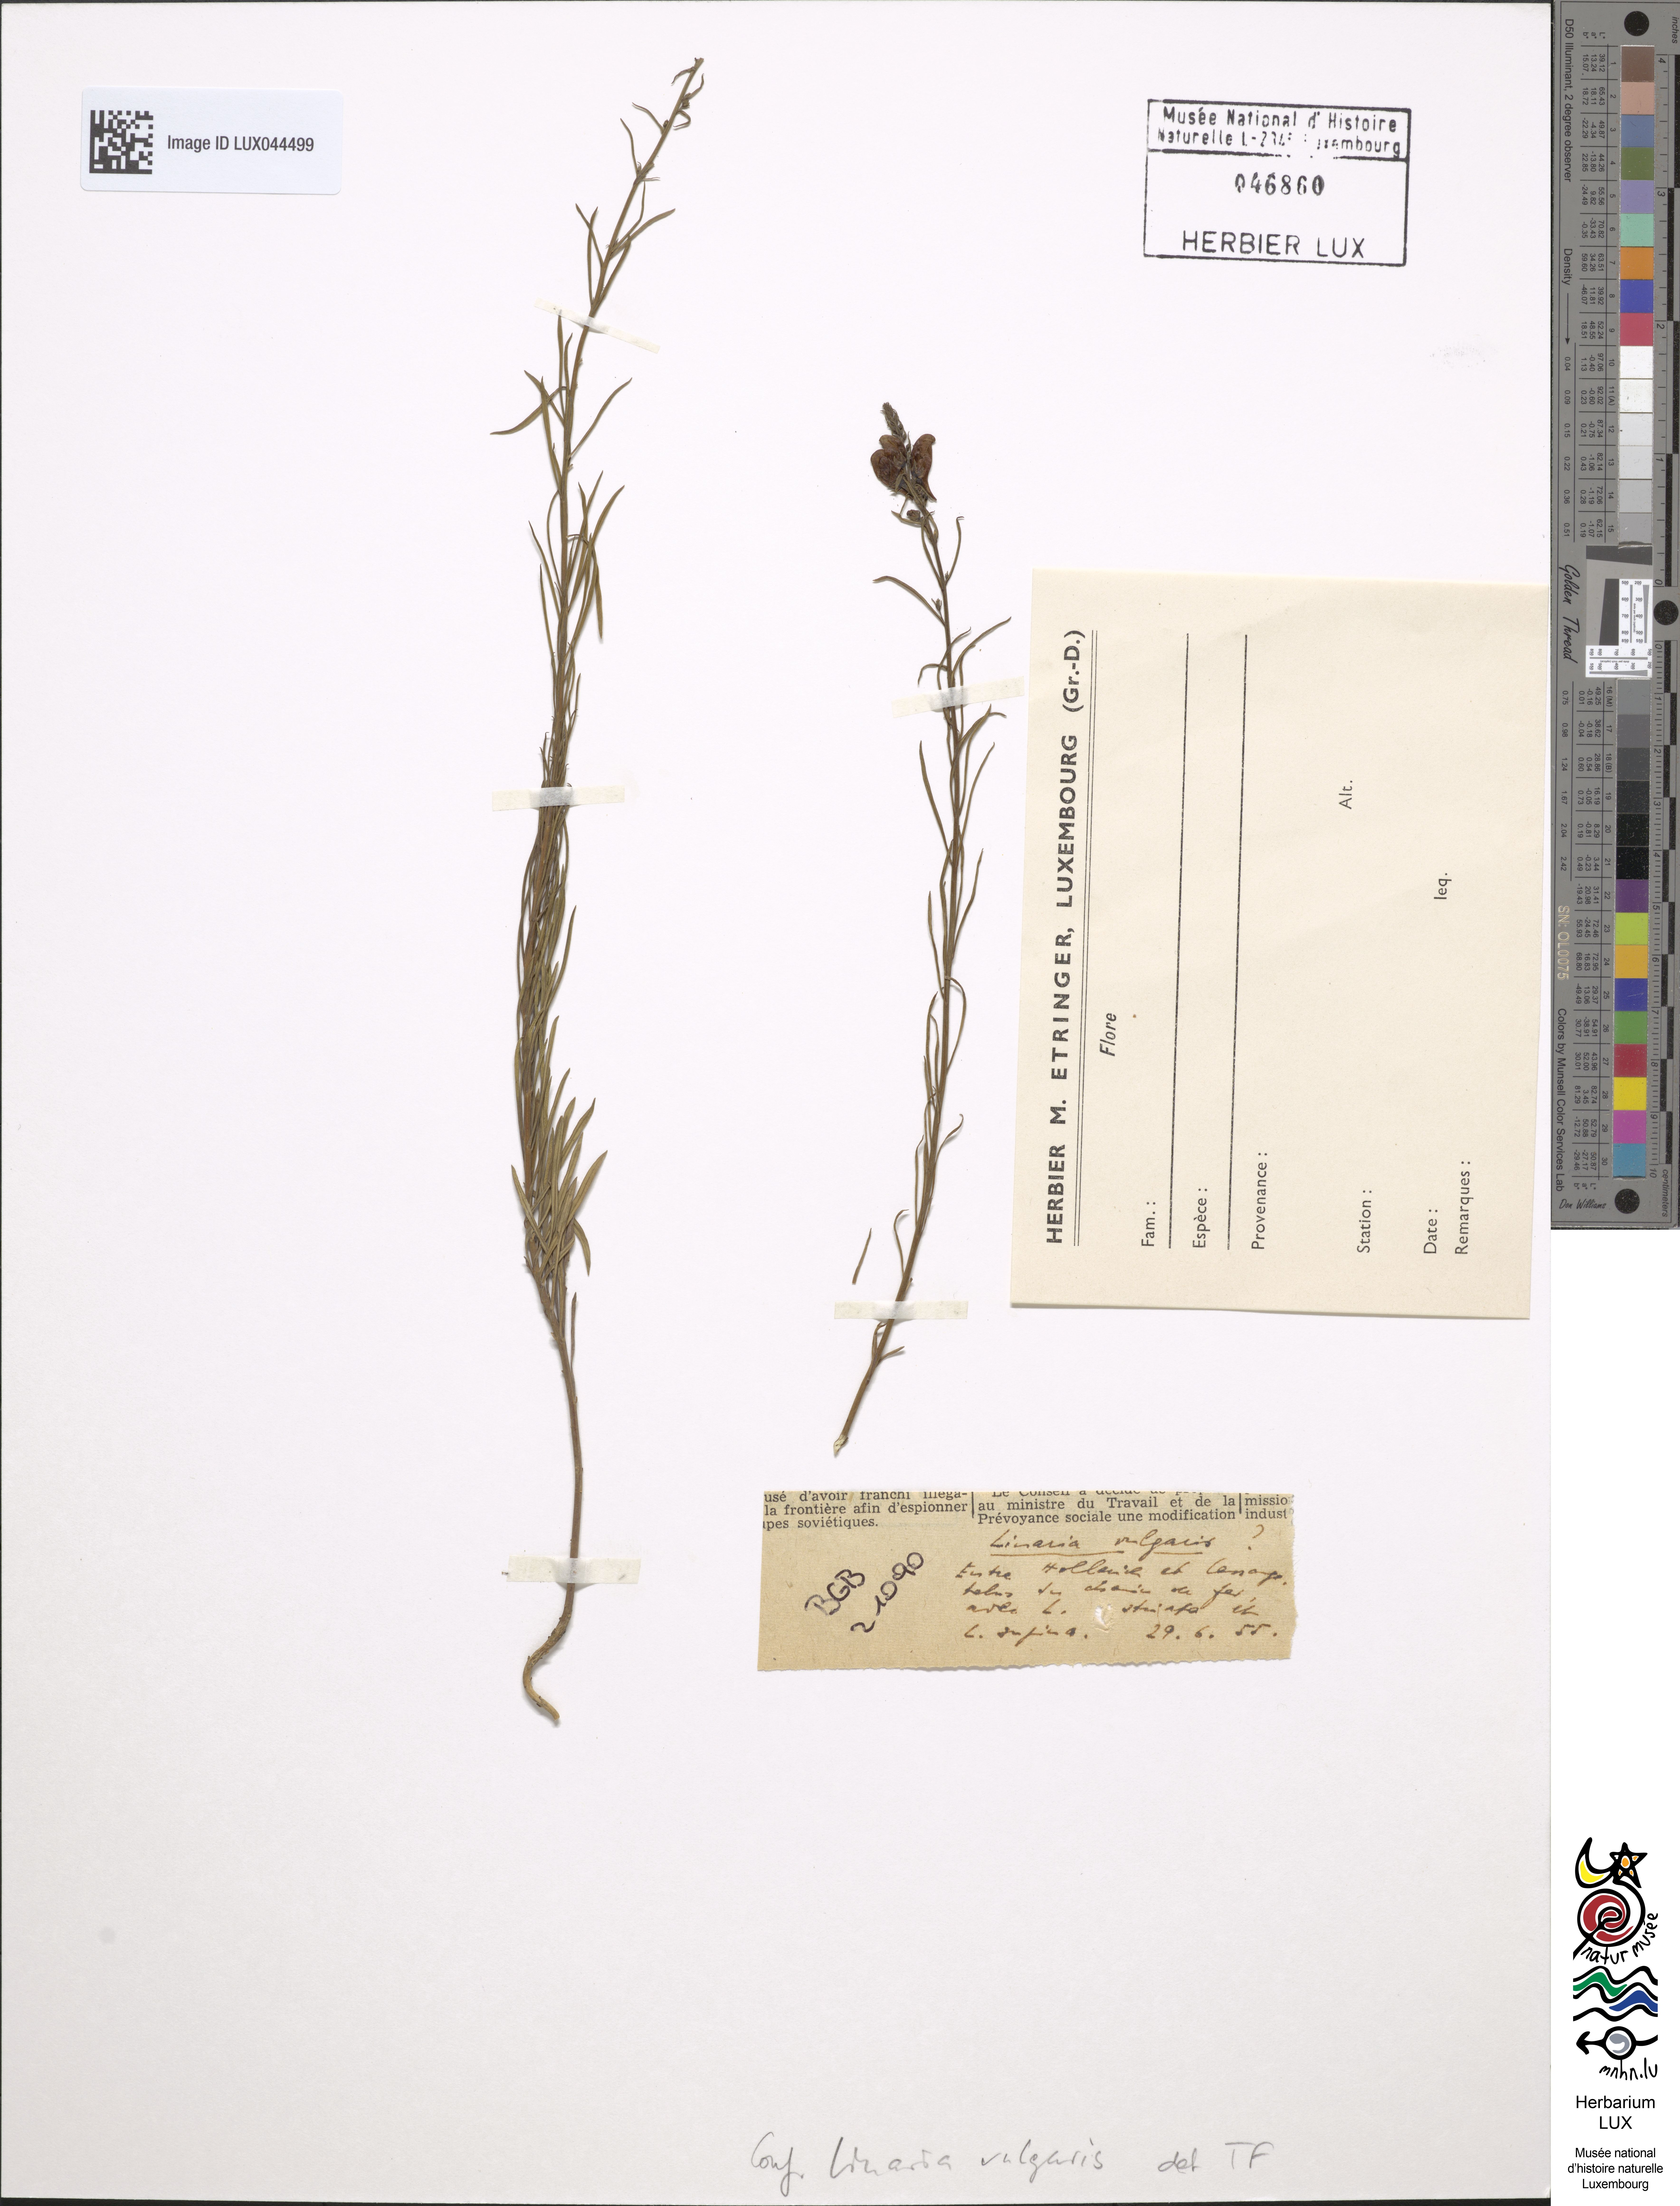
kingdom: Plantae
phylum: Tracheophyta
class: Magnoliopsida
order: Lamiales
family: Plantaginaceae
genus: Linaria
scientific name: Linaria vulgaris
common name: Butter and eggs
